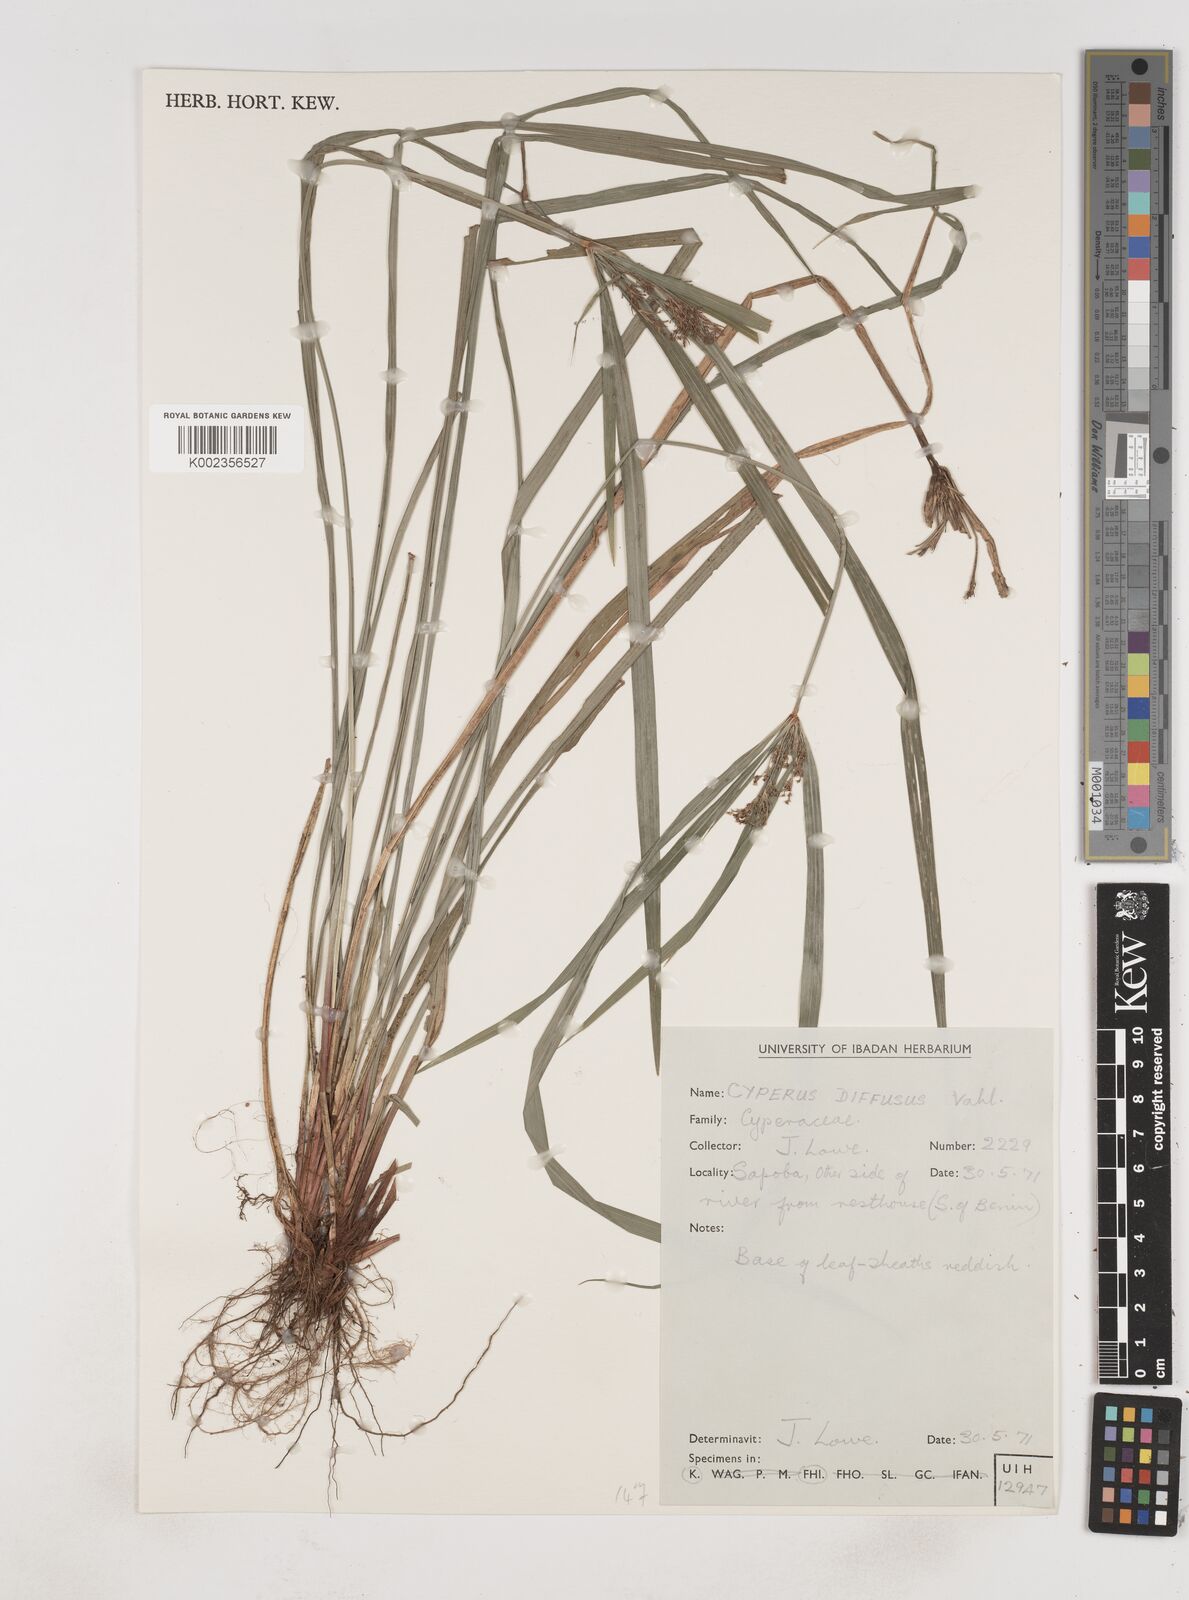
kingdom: Plantae
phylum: Tracheophyta
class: Liliopsida
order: Poales
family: Cyperaceae
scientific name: Cyperaceae
